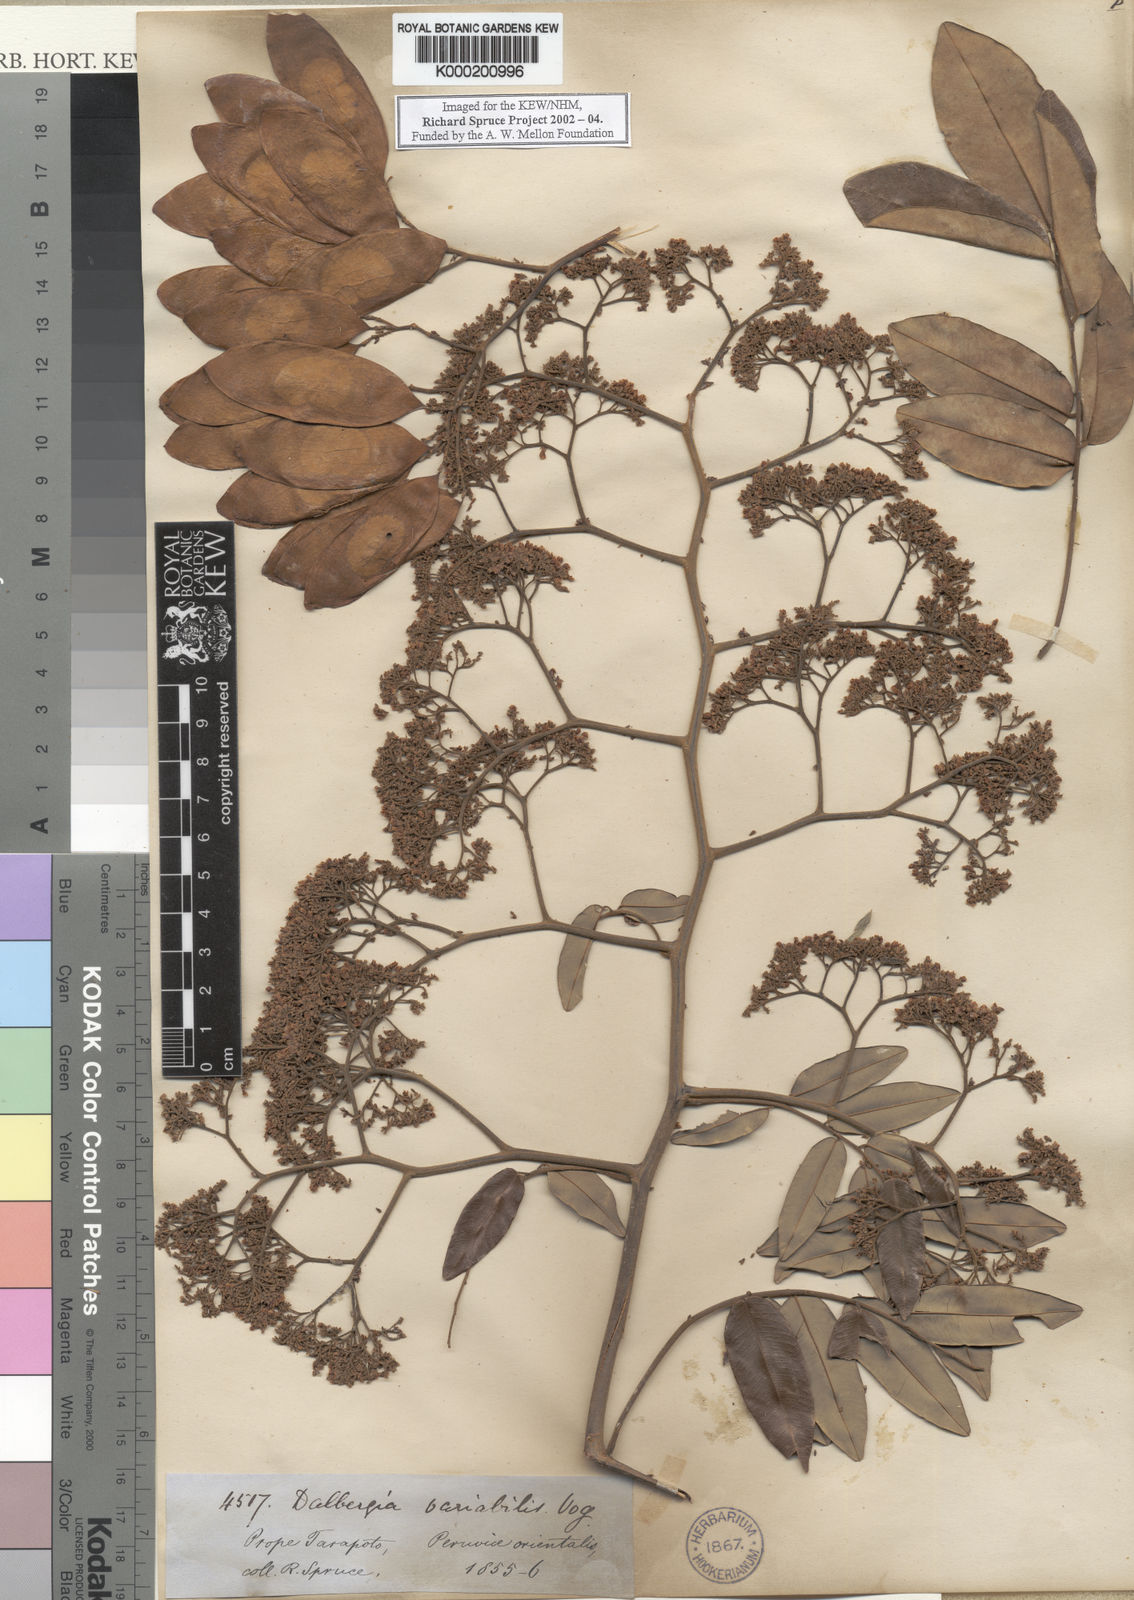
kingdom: Plantae
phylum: Tracheophyta
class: Magnoliopsida
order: Fabales
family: Fabaceae
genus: Dalbergia
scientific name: Dalbergia frutescens
